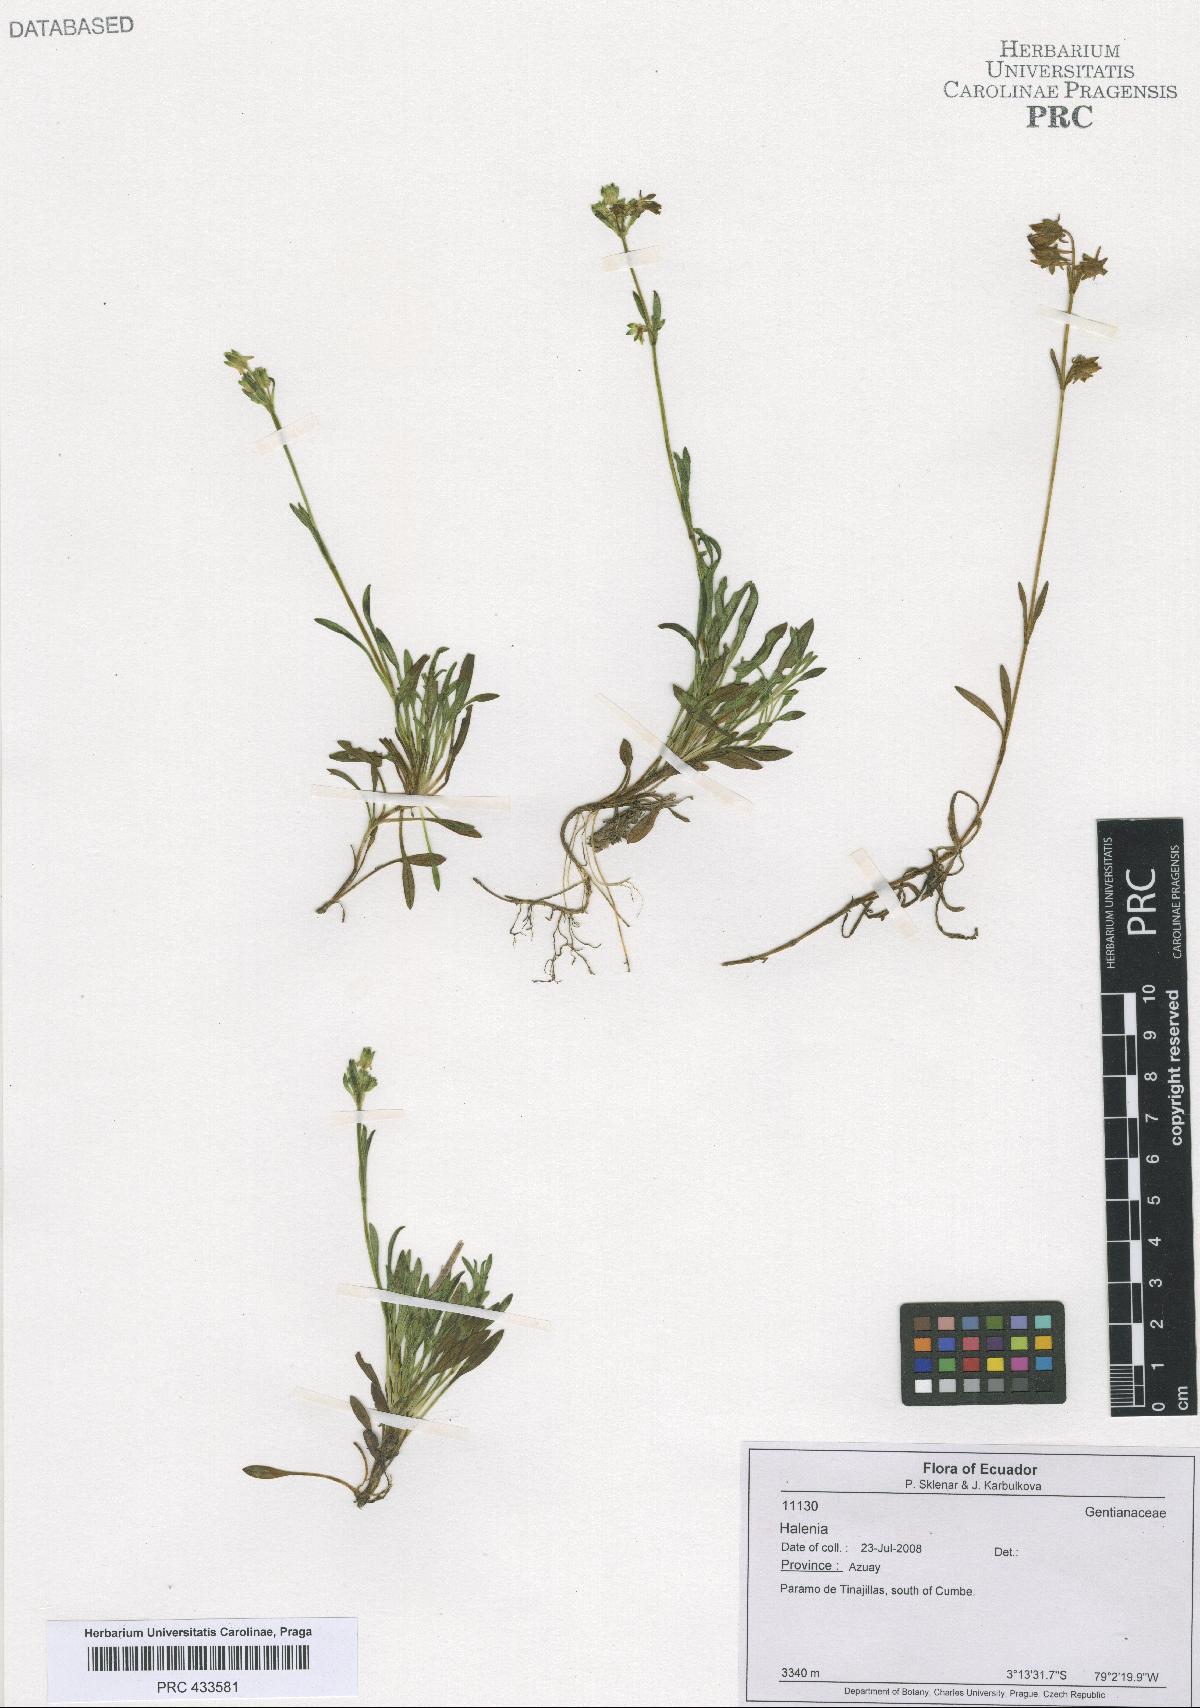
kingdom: Plantae
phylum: Tracheophyta
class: Magnoliopsida
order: Gentianales
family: Gentianaceae
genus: Halenia
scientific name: Halenia
